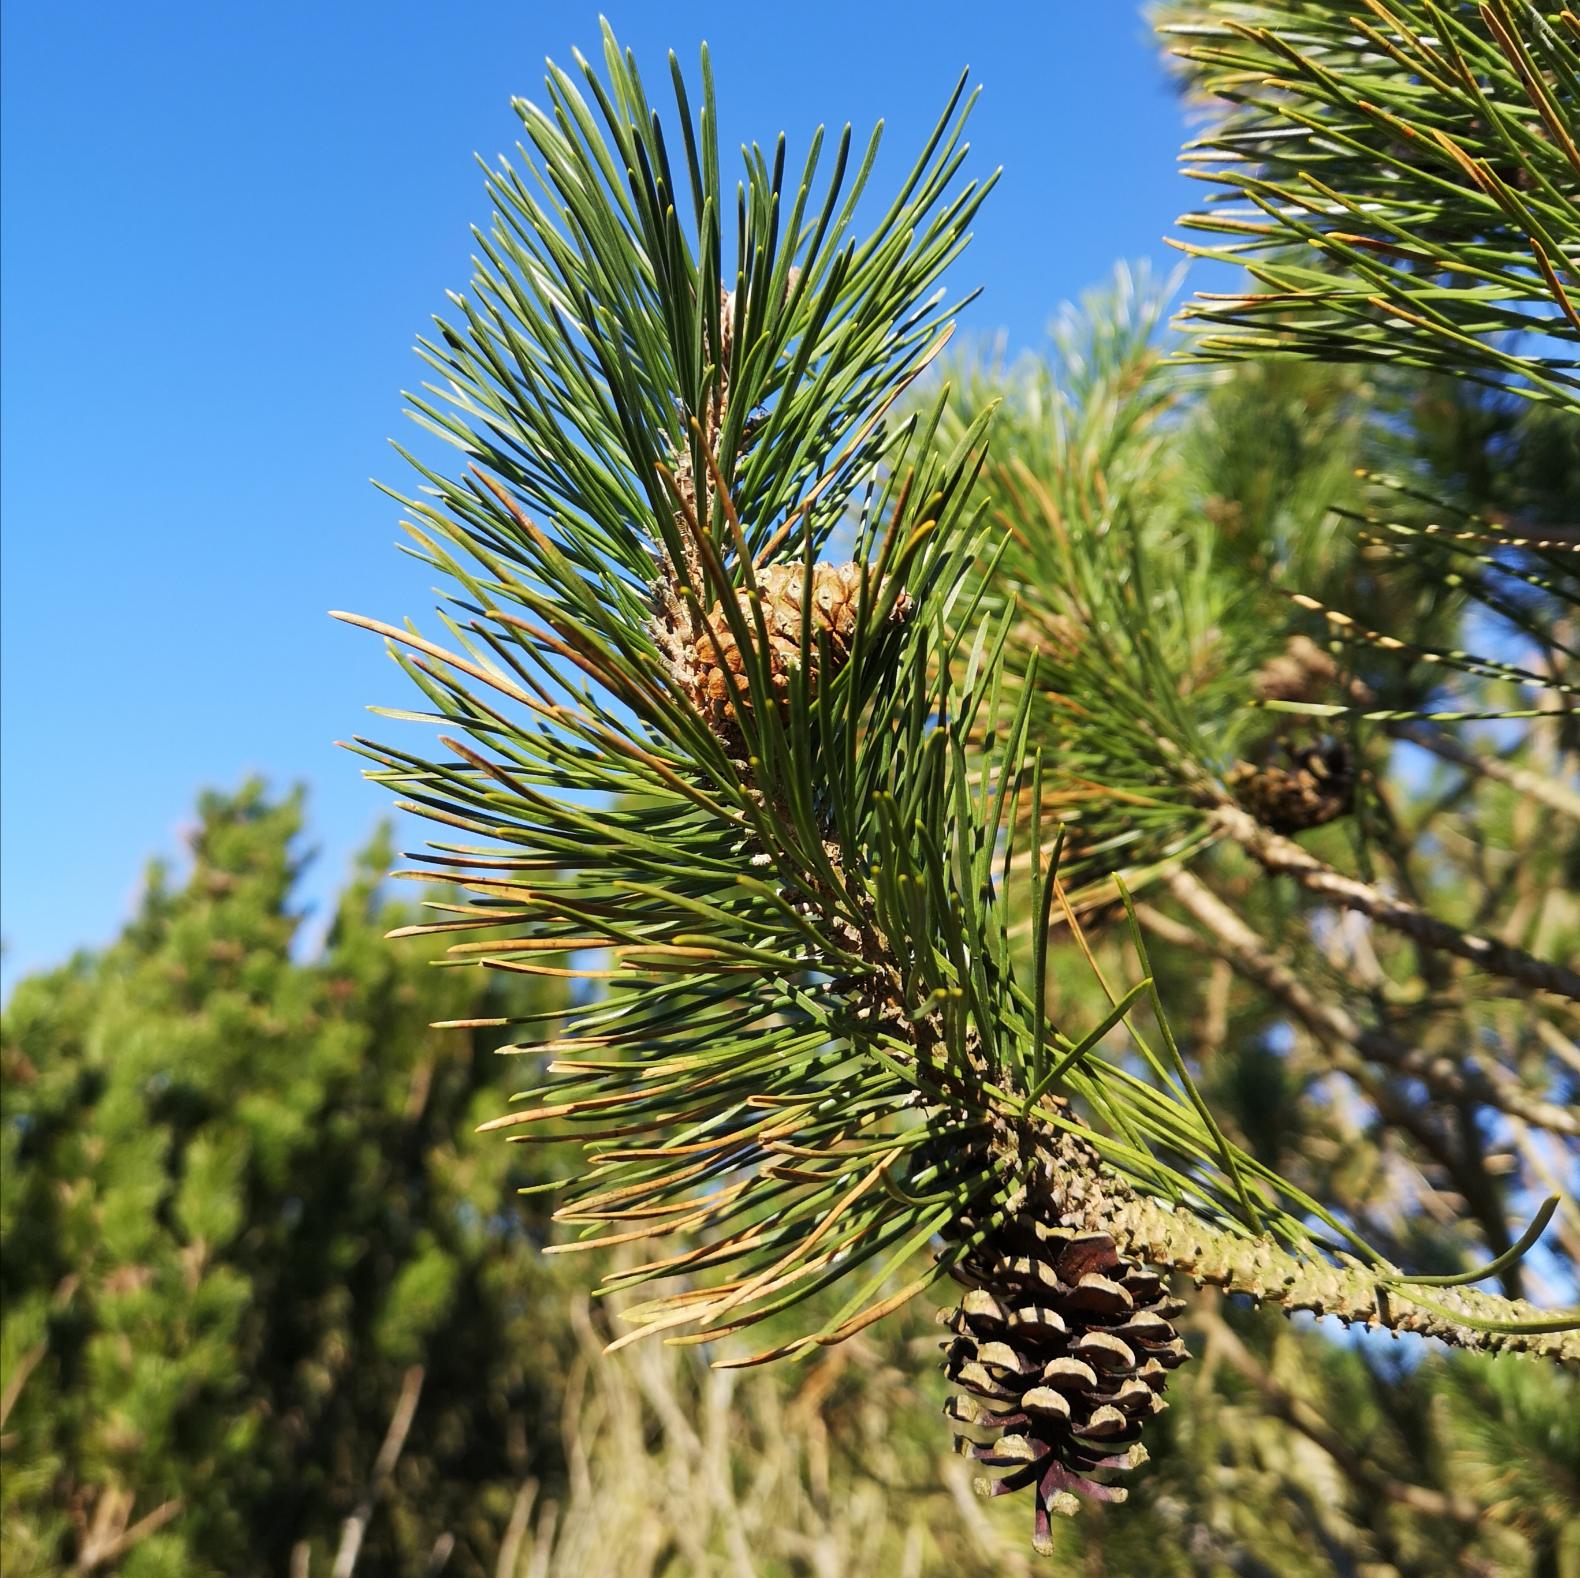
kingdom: Plantae
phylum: Tracheophyta
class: Pinopsida
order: Pinales
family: Pinaceae
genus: Pinus
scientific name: Pinus mugo
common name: Bjerg-fyr
